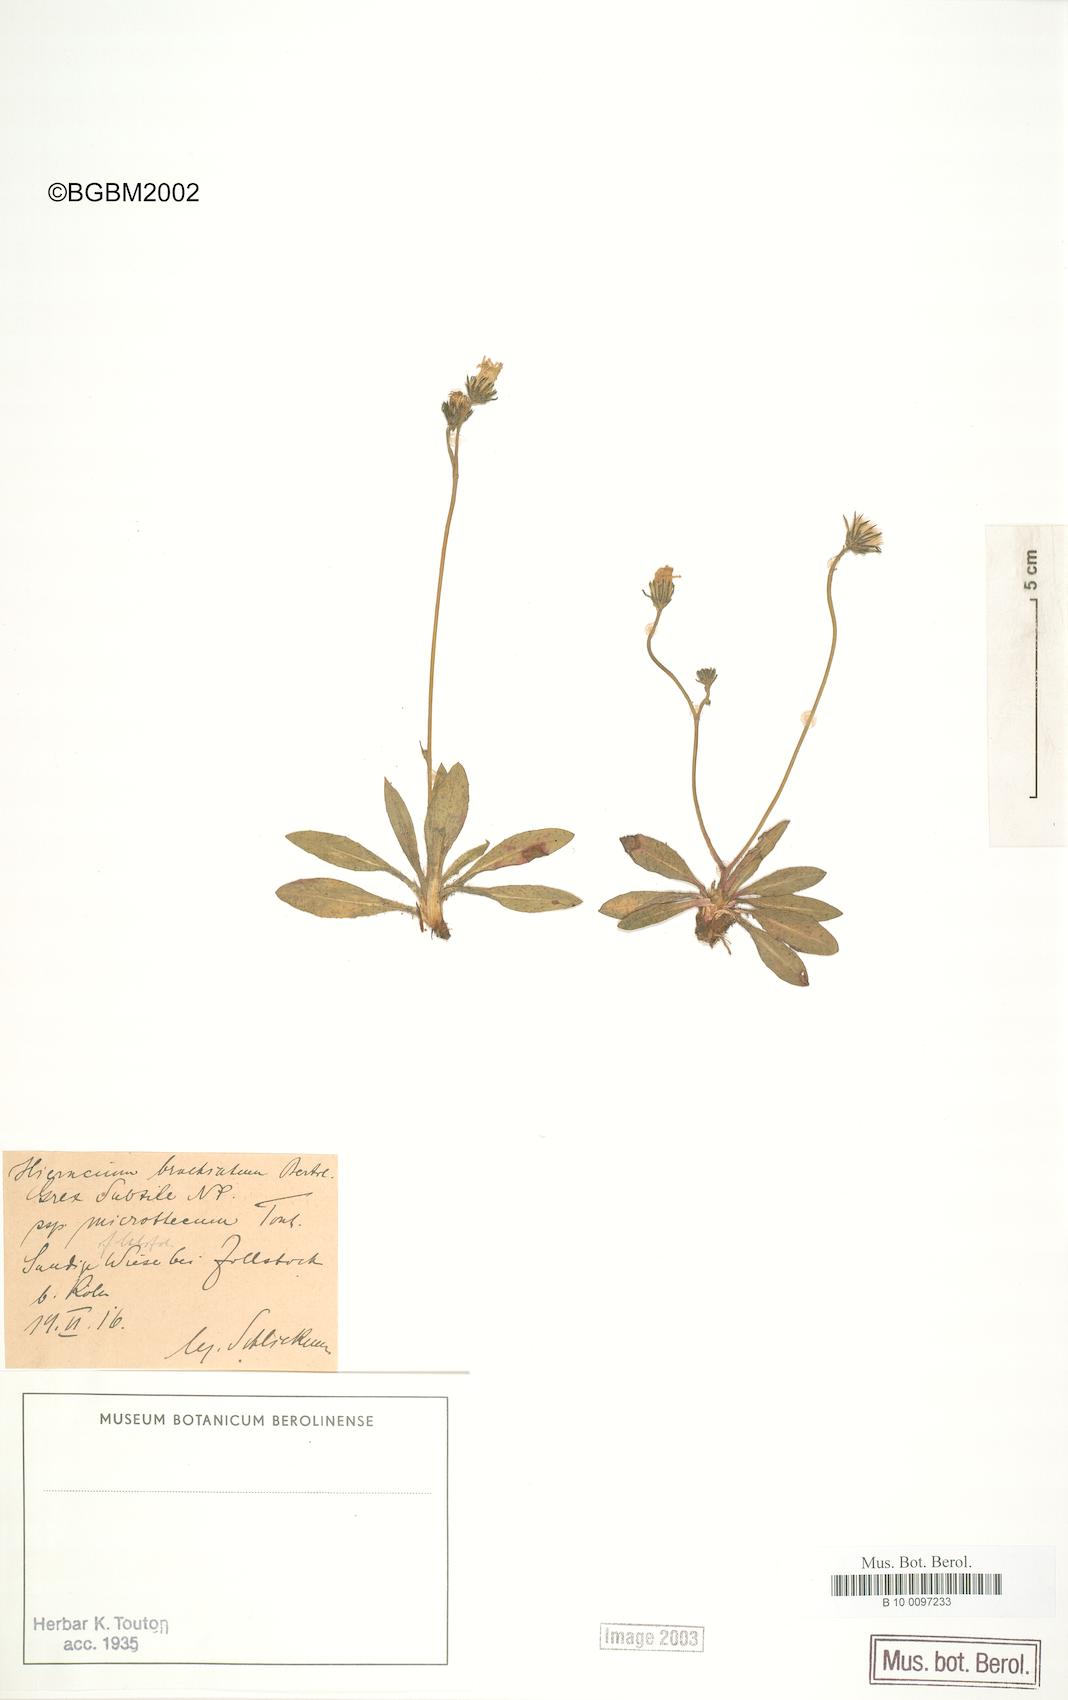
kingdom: Plantae
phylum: Tracheophyta
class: Magnoliopsida
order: Asterales
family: Asteraceae
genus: Pilosella
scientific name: Pilosella acutifolia
